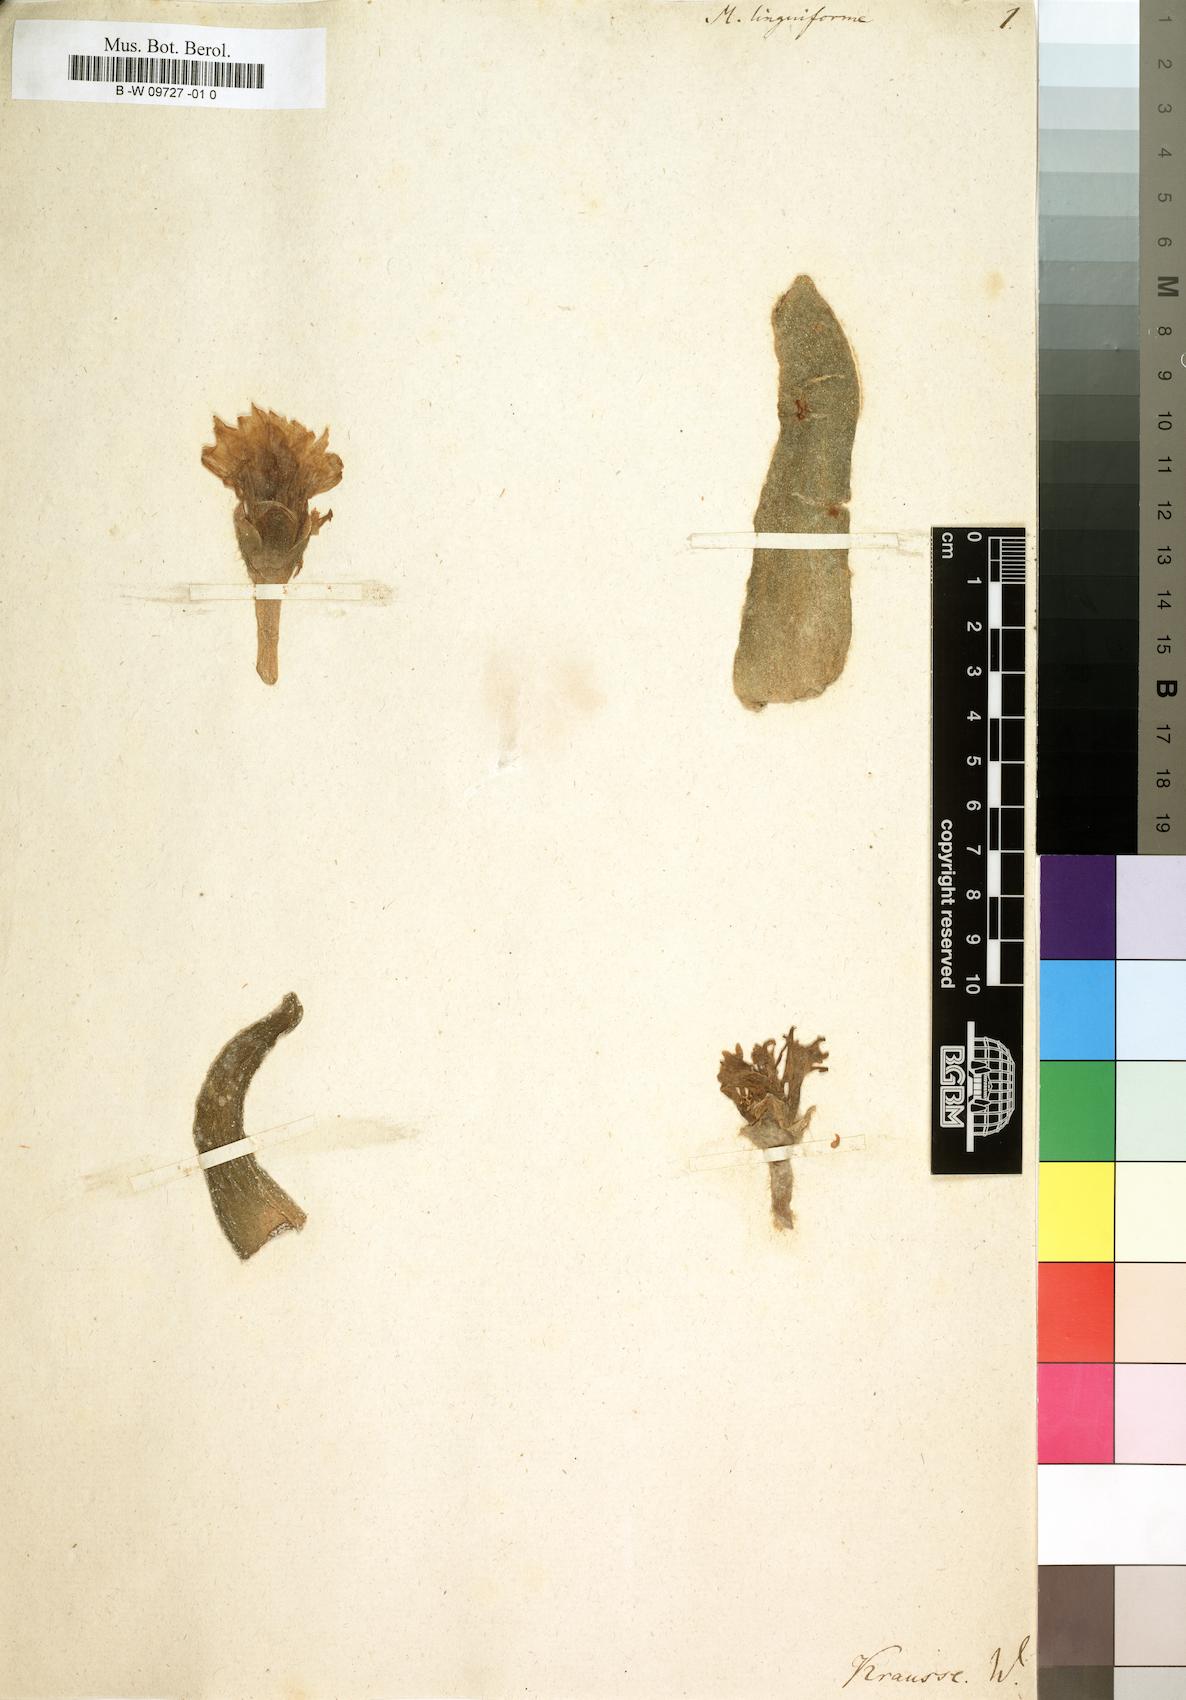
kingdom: Plantae
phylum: Tracheophyta
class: Magnoliopsida
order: Caryophyllales
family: Aizoaceae
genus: Mesembryanthemum
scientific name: Mesembryanthemum linguiforme
